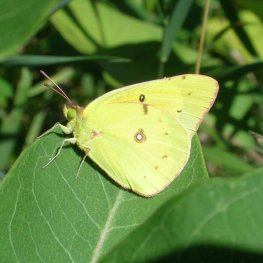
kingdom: Animalia
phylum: Arthropoda
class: Insecta
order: Lepidoptera
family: Pieridae
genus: Colias
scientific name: Colias eurytheme
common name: Orange Sulphur
